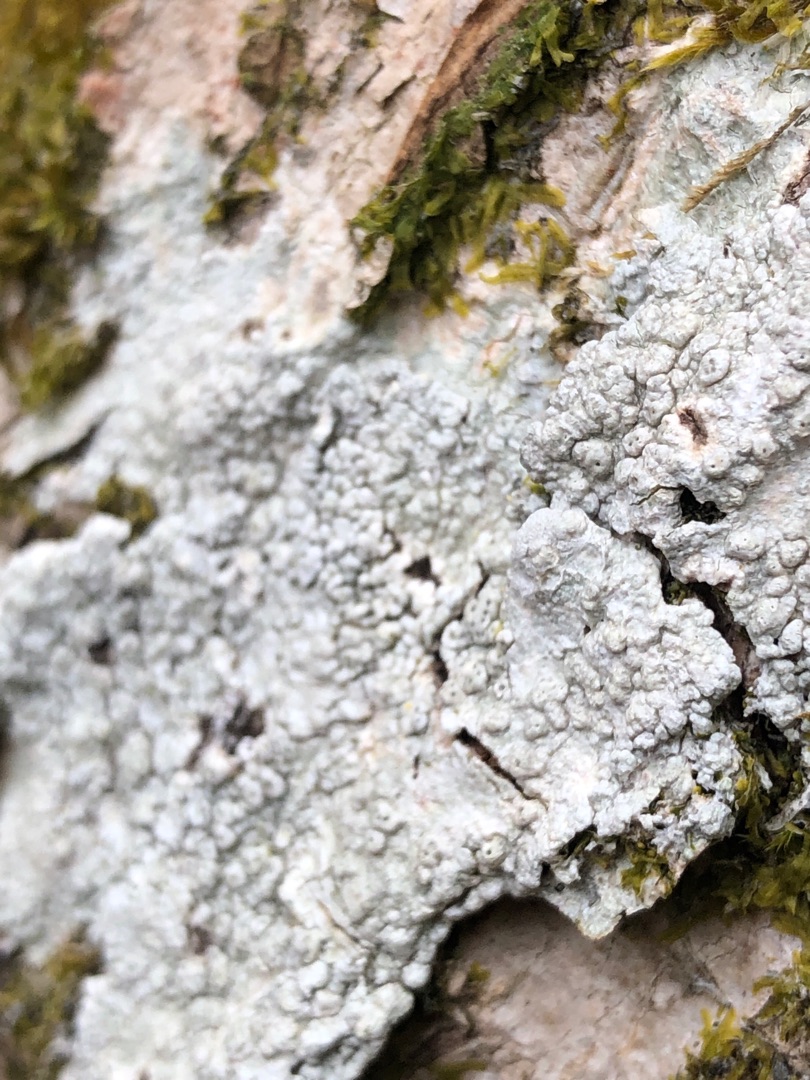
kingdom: Fungi
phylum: Ascomycota
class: Lecanoromycetes
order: Pertusariales
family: Pertusariaceae
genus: Pertusaria
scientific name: Pertusaria pertusa
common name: Almindelig prikvortelav
